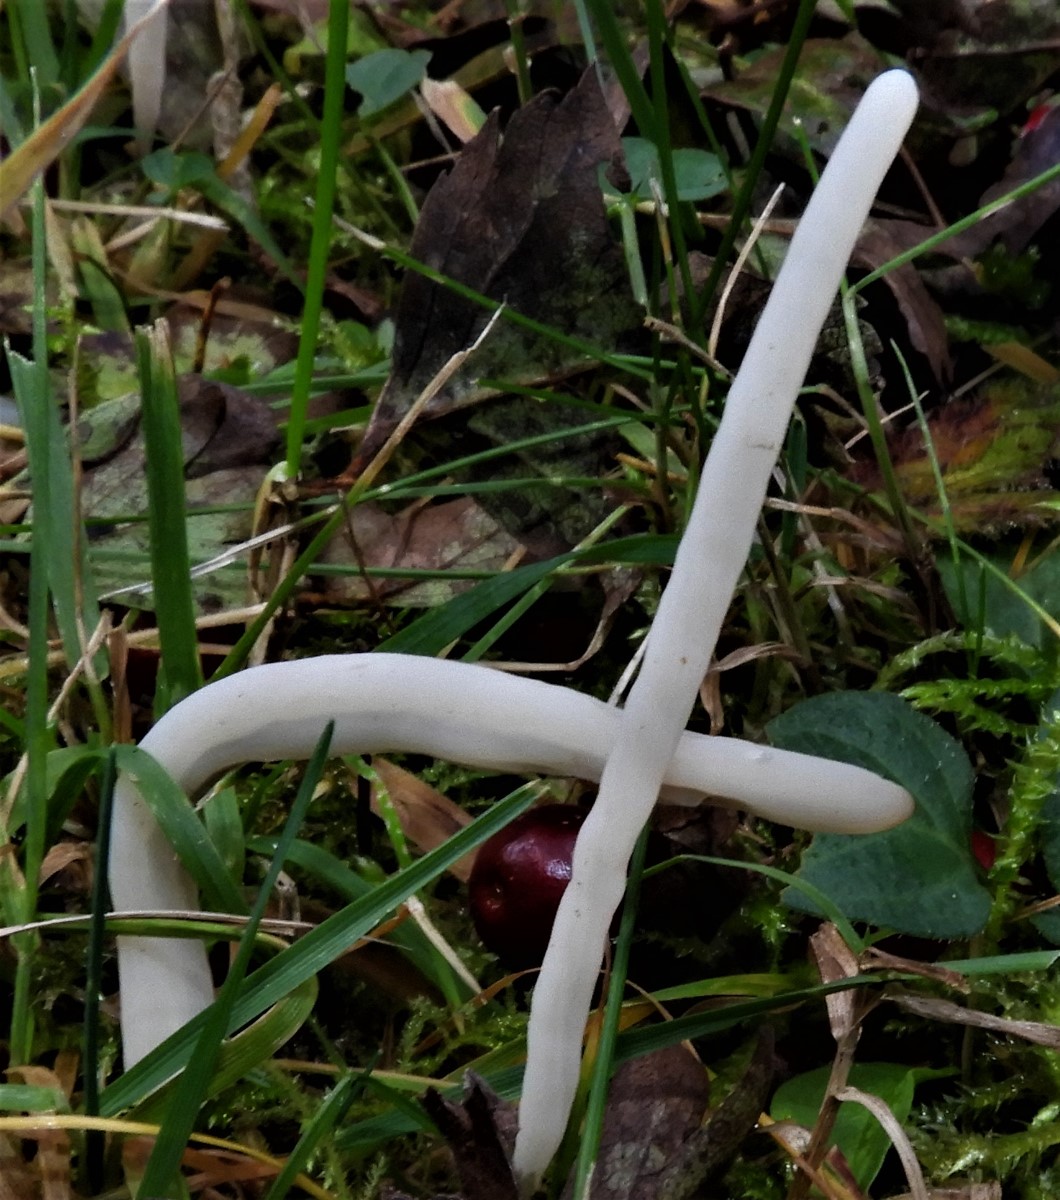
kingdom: Fungi
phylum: Basidiomycota
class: Agaricomycetes
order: Agaricales
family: Clavariaceae
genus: Clavaria
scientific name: Clavaria
